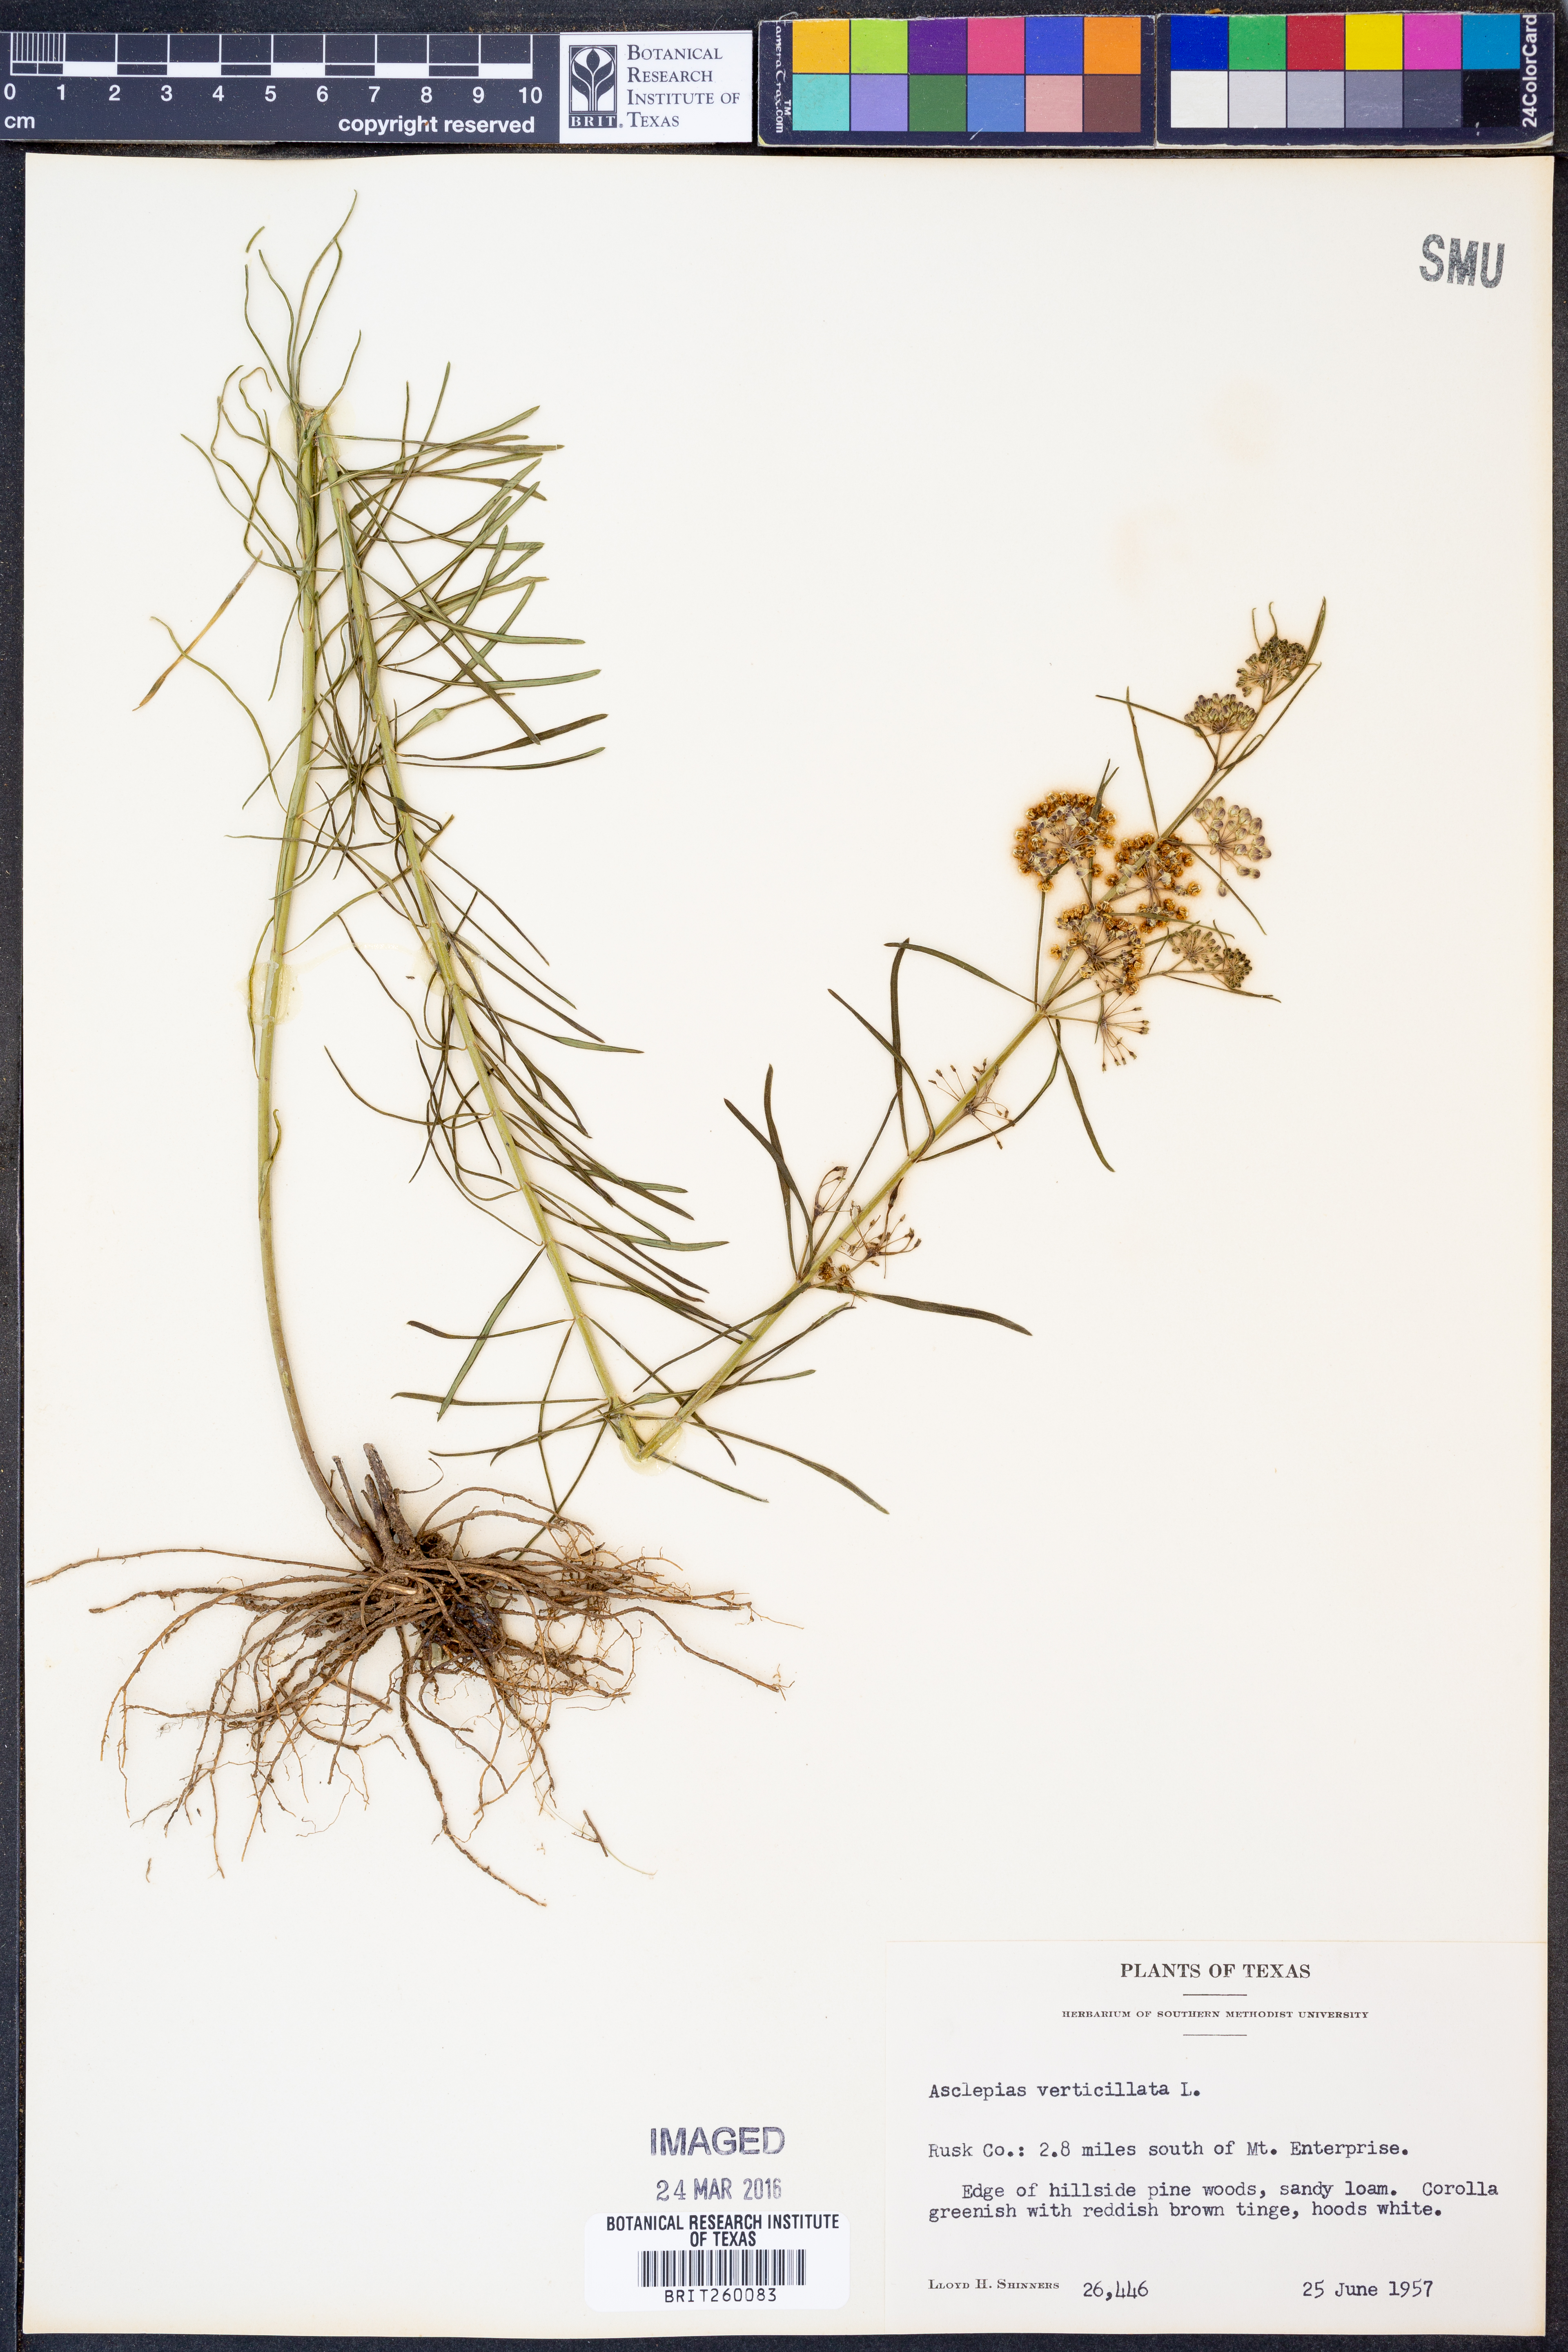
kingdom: Plantae
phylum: Tracheophyta
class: Magnoliopsida
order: Gentianales
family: Apocynaceae
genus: Asclepias
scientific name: Asclepias verticillata
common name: Eastern whorled milkweed
